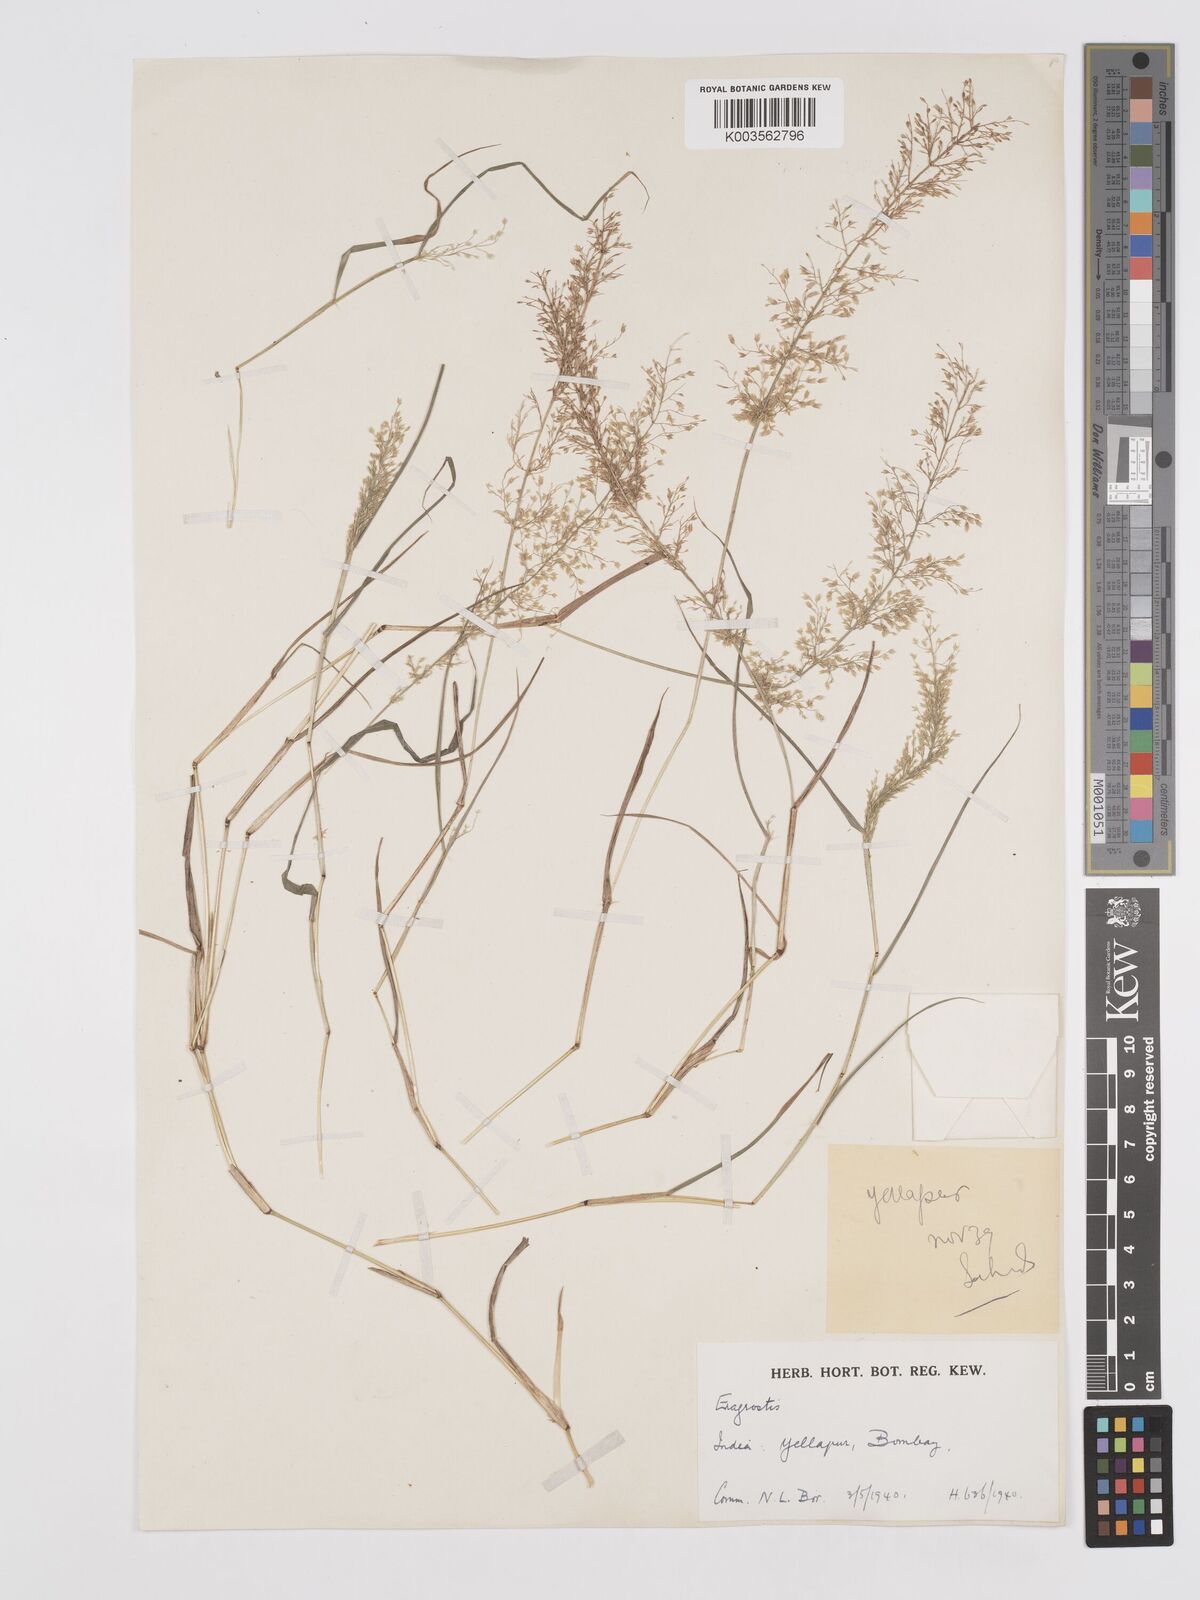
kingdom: Plantae
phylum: Tracheophyta
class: Liliopsida
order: Poales
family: Poaceae
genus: Eragrostis
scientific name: Eragrostis viscosa
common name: Sticky love grass
